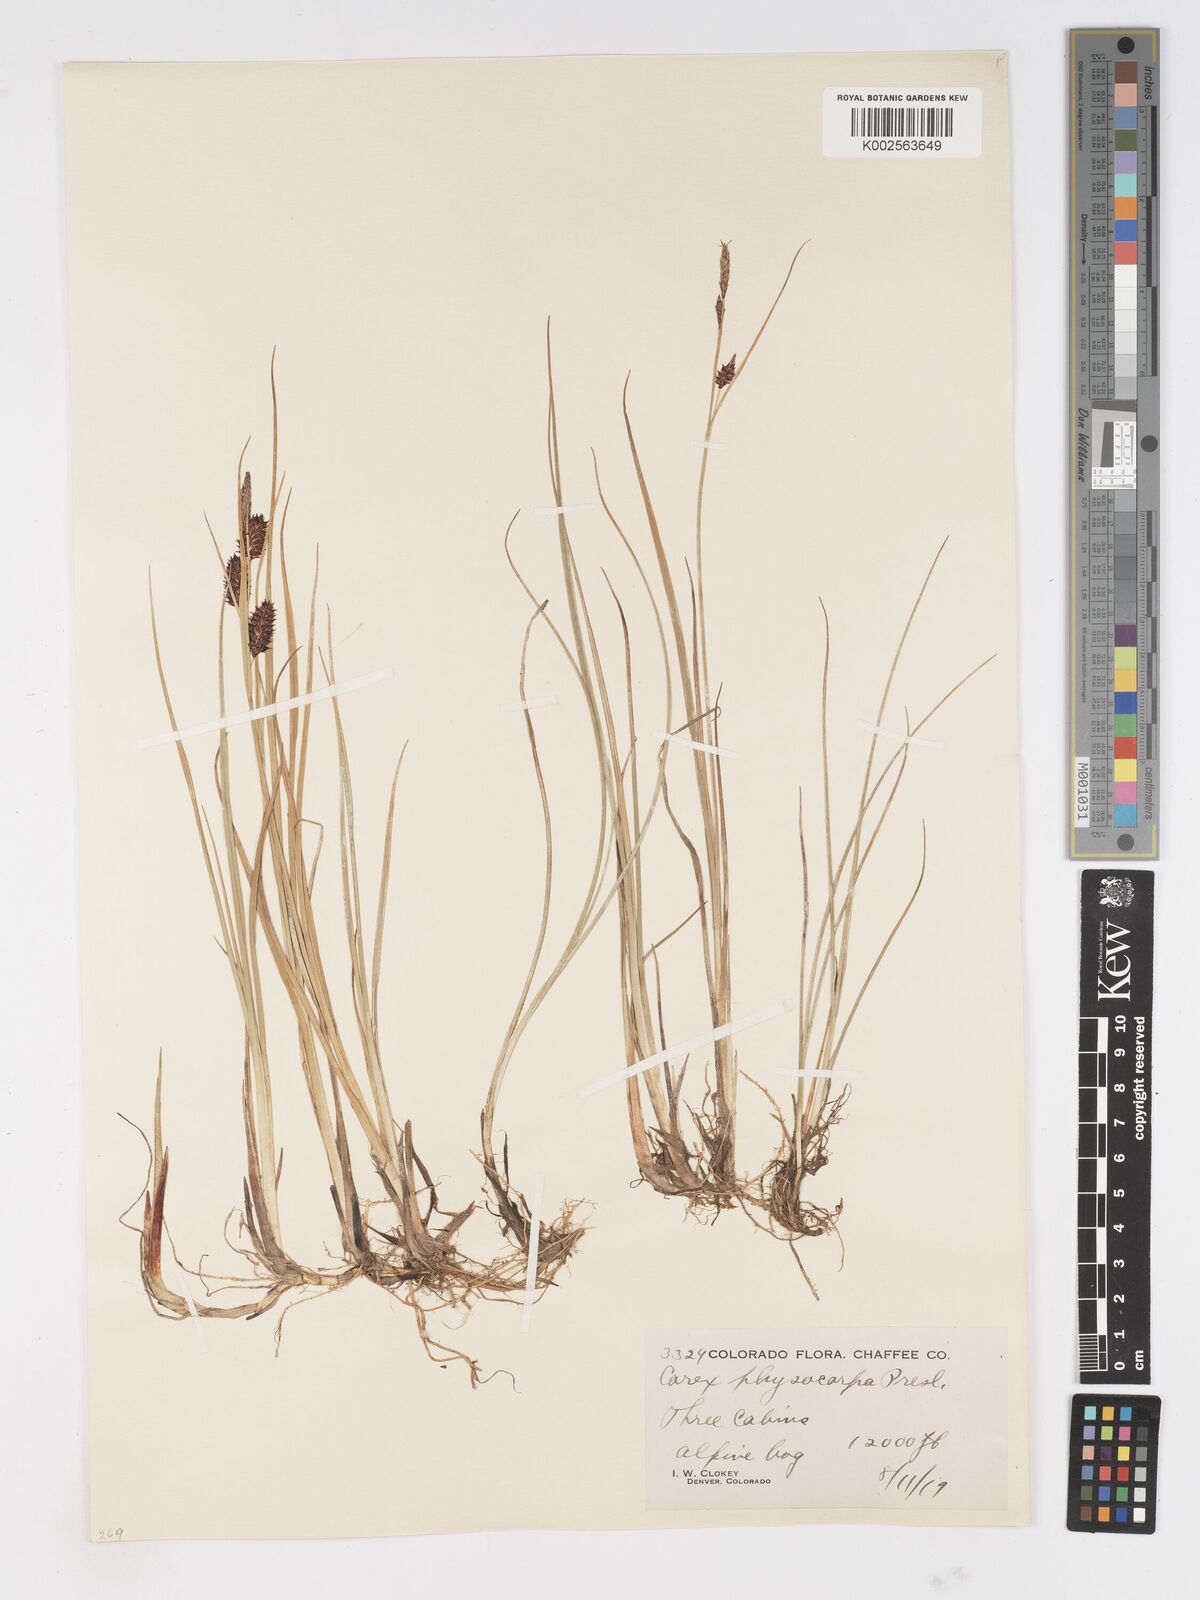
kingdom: Plantae
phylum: Tracheophyta
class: Liliopsida
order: Poales
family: Cyperaceae
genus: Carex
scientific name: Carex saxatilis
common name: Russet sedge
